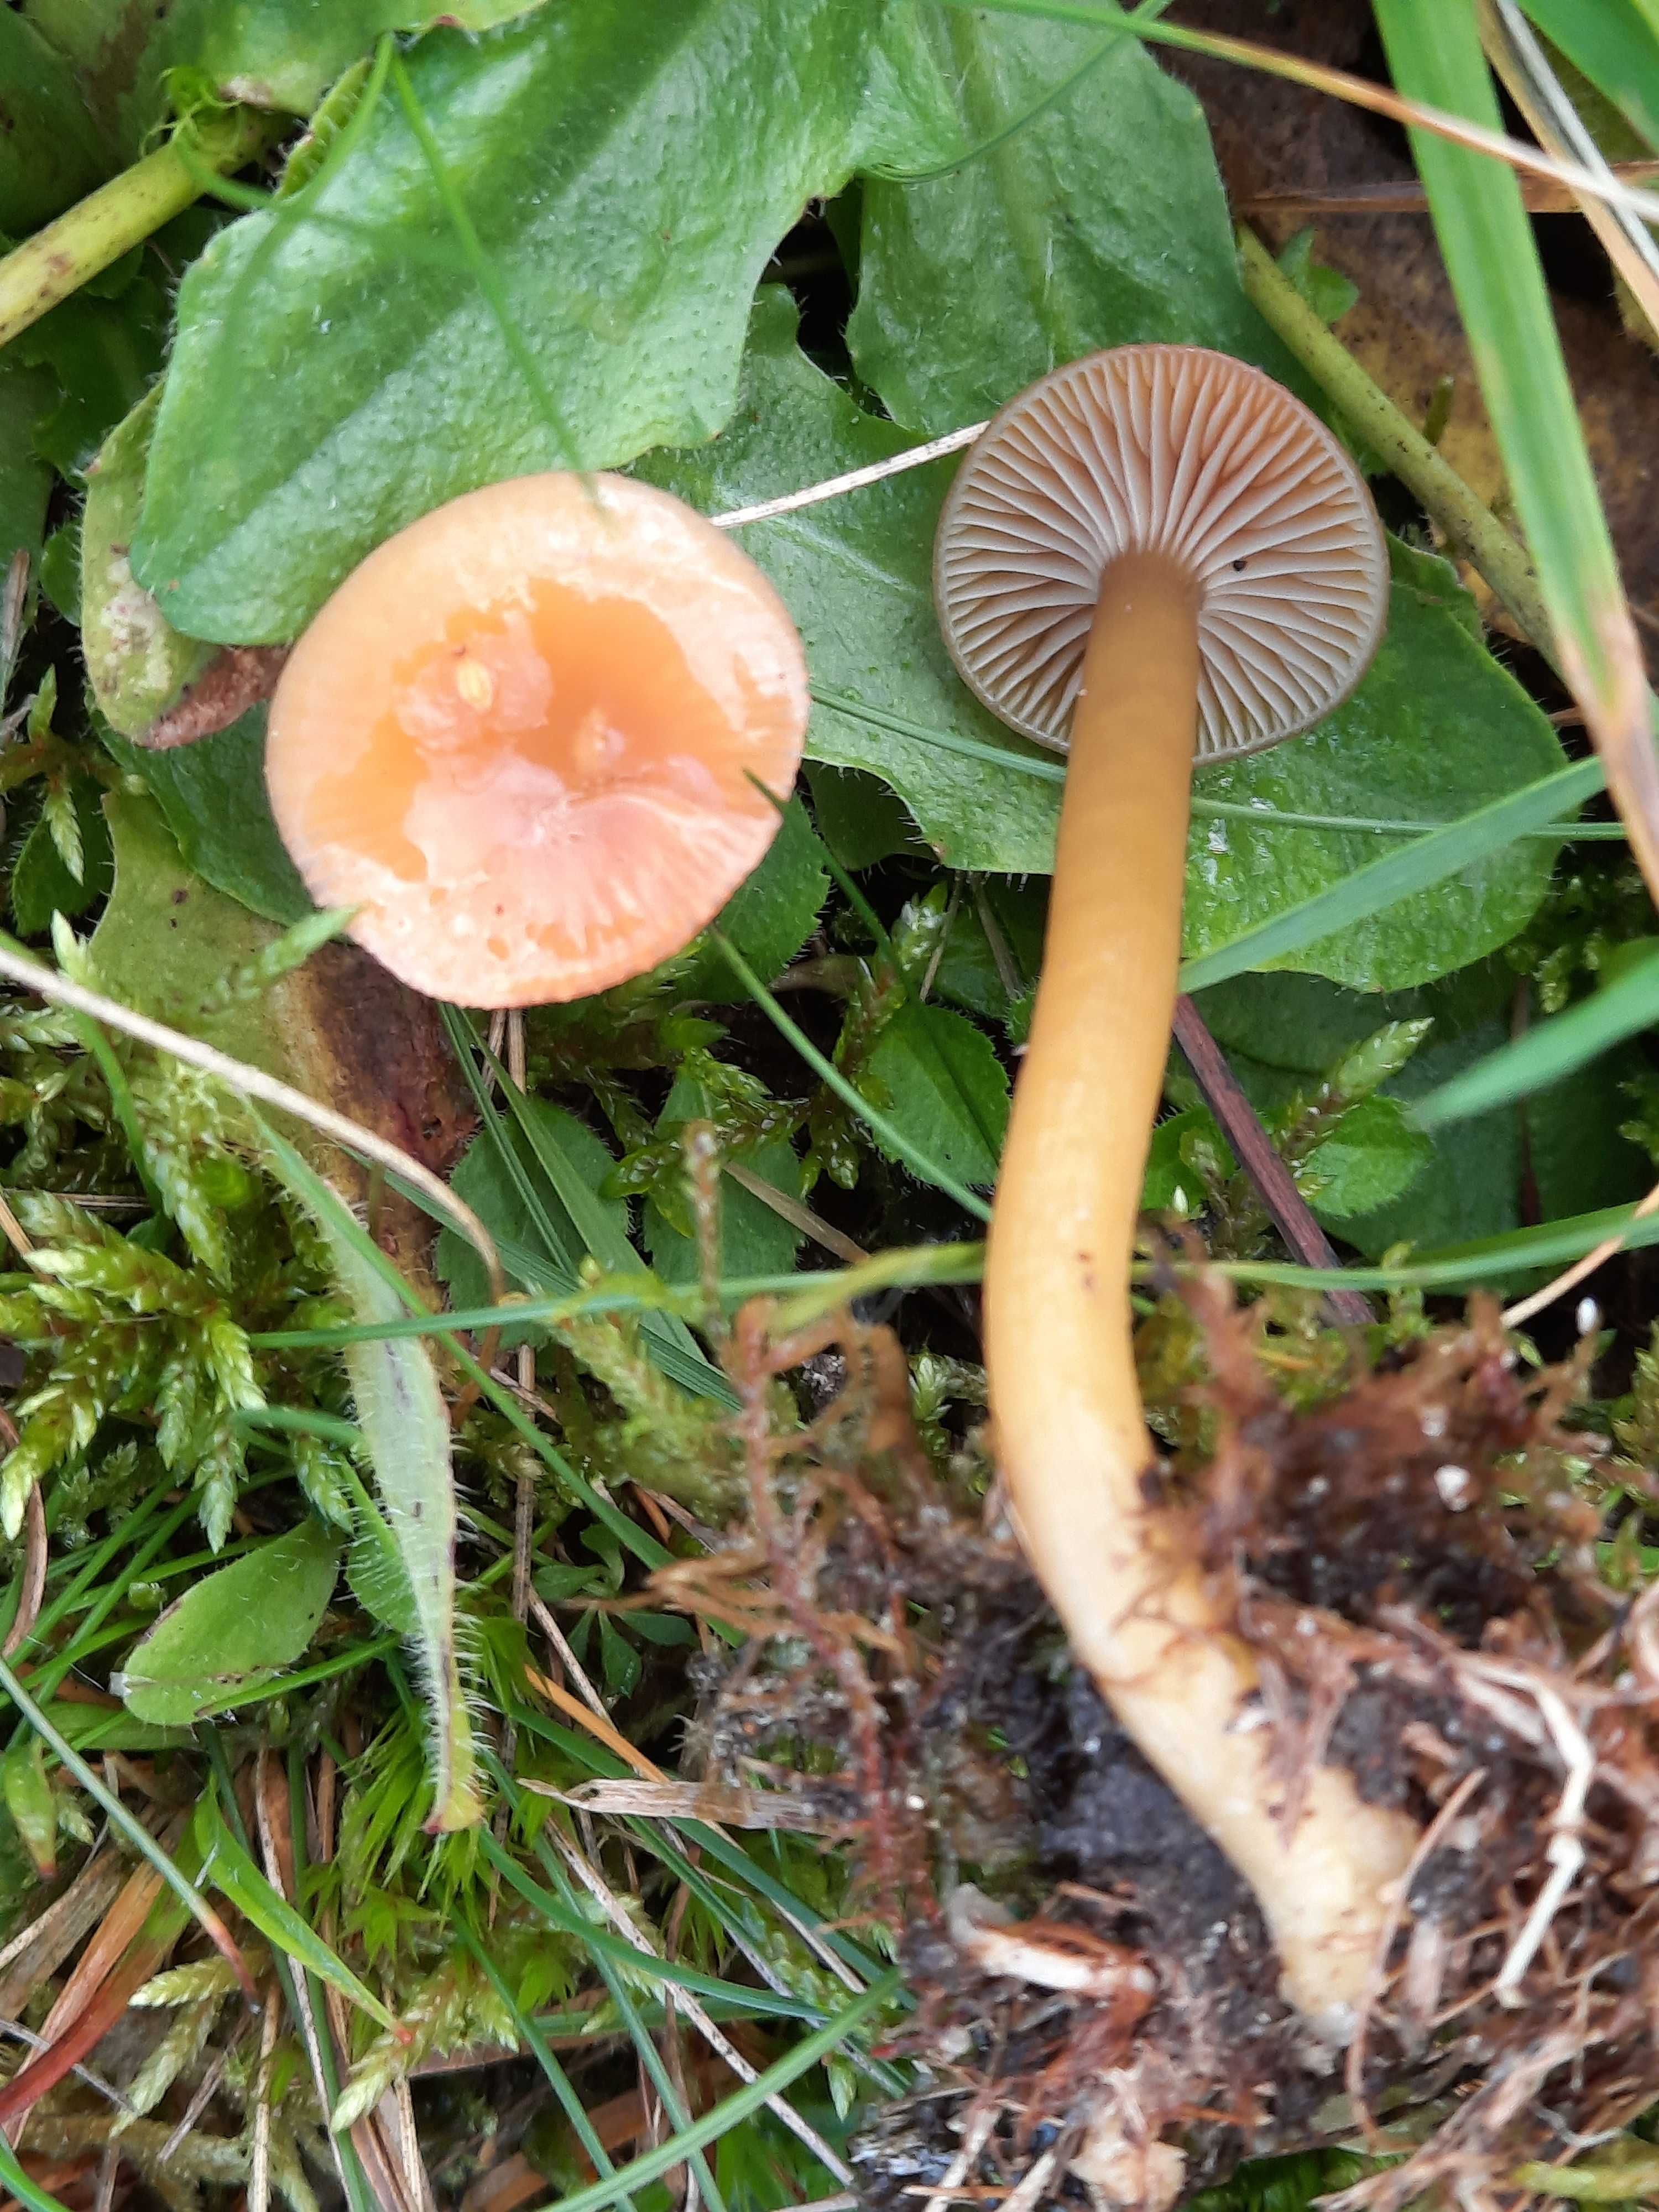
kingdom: Fungi
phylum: Basidiomycota
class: Agaricomycetes
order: Agaricales
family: Hygrophoraceae
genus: Gliophorus
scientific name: Gliophorus laetus
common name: brusk-vokshat
